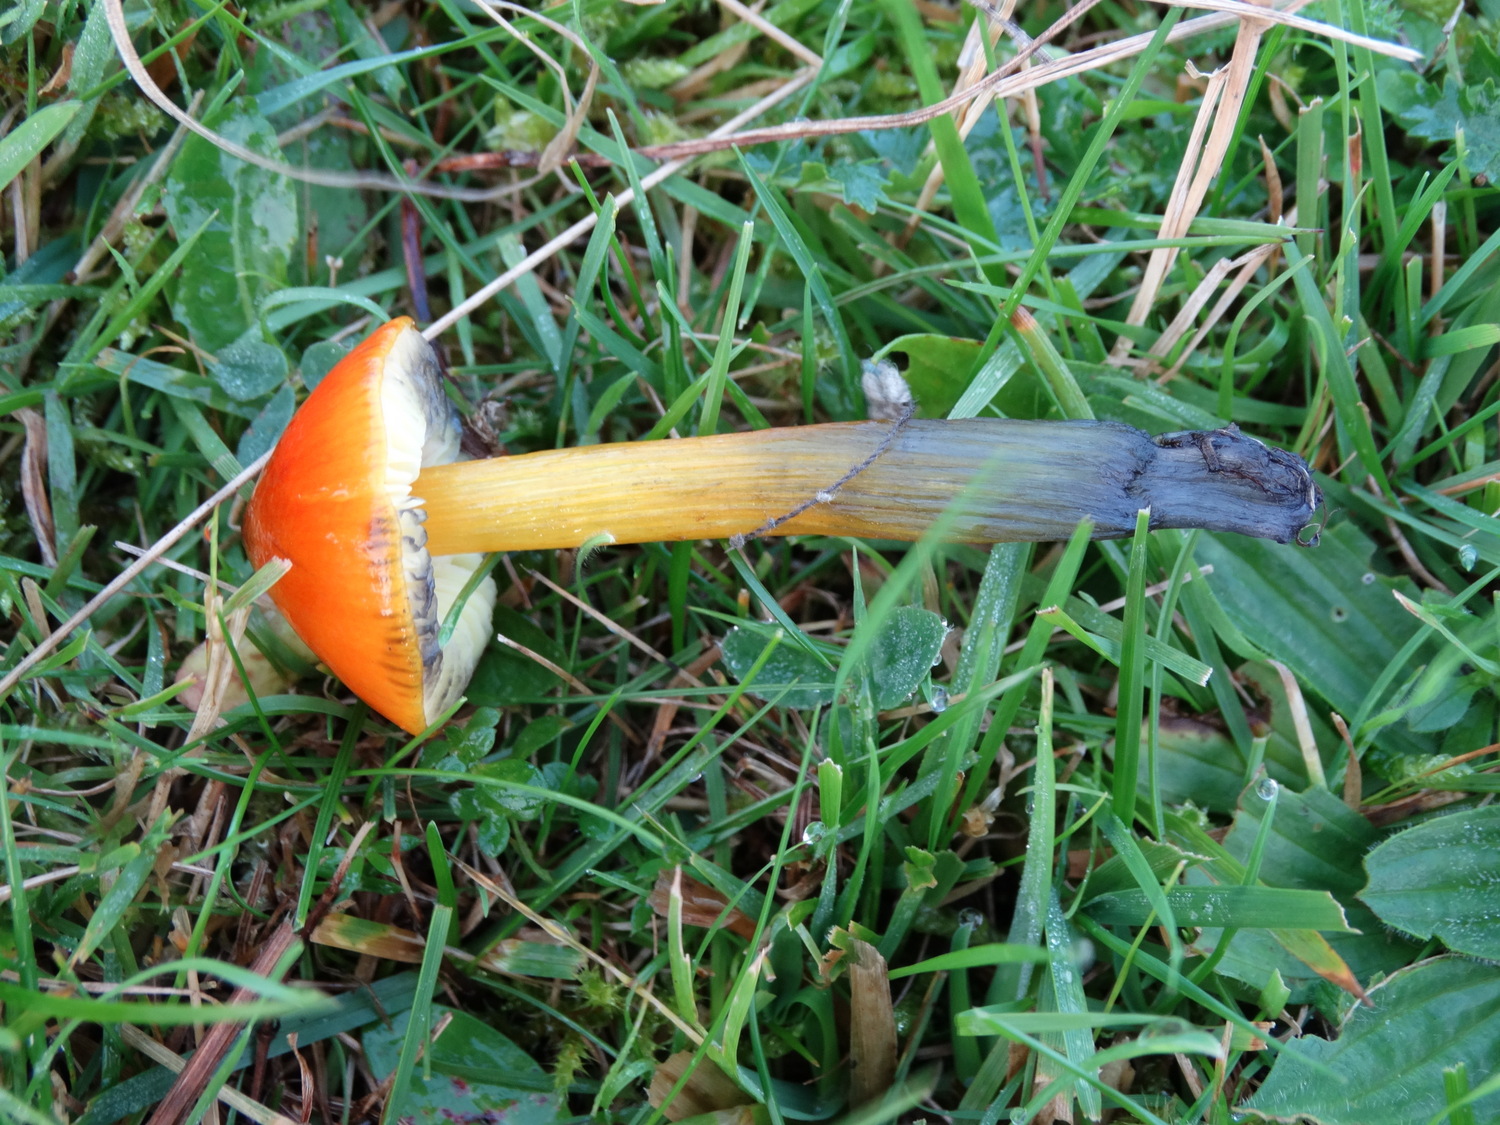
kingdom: Fungi
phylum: Basidiomycota
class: Agaricomycetes
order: Agaricales
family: Hygrophoraceae
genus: Hygrocybe
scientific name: Hygrocybe conica
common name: kegle-vokshat
